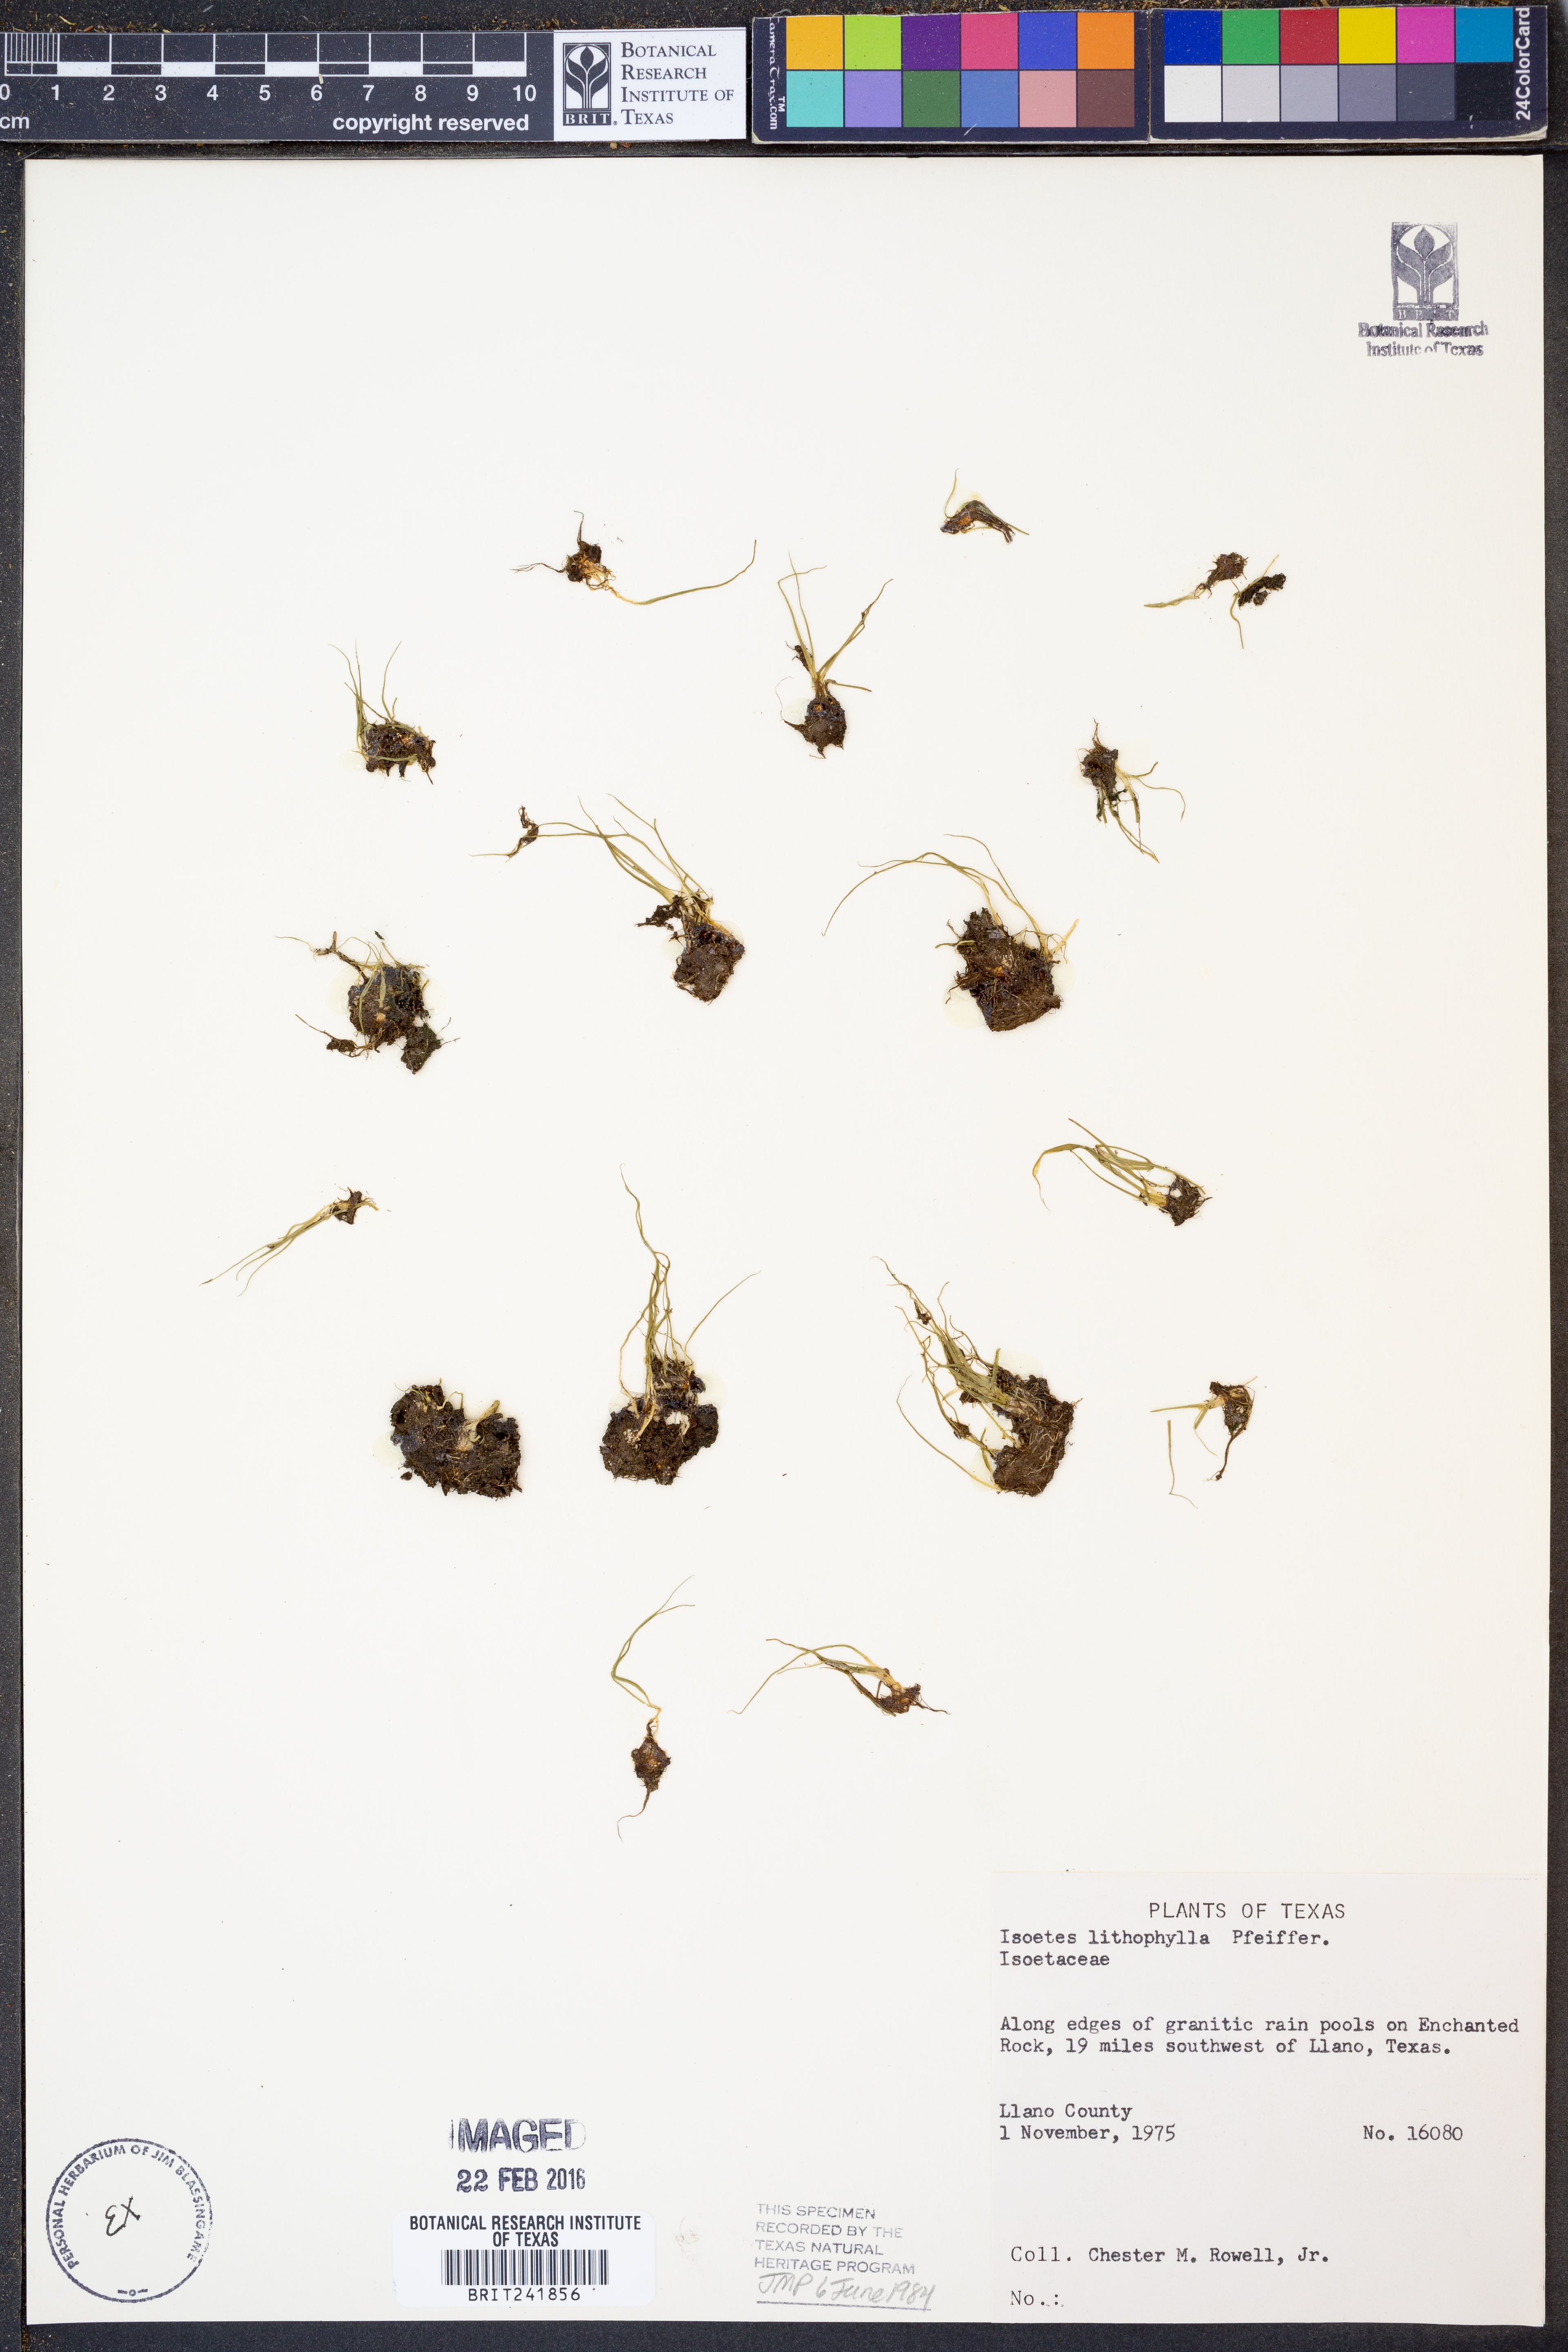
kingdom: Plantae
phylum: Tracheophyta
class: Lycopodiopsida
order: Isoetales
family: Isoetaceae
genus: Isoetes
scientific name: Isoetes lithophila
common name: Rock quillwort
